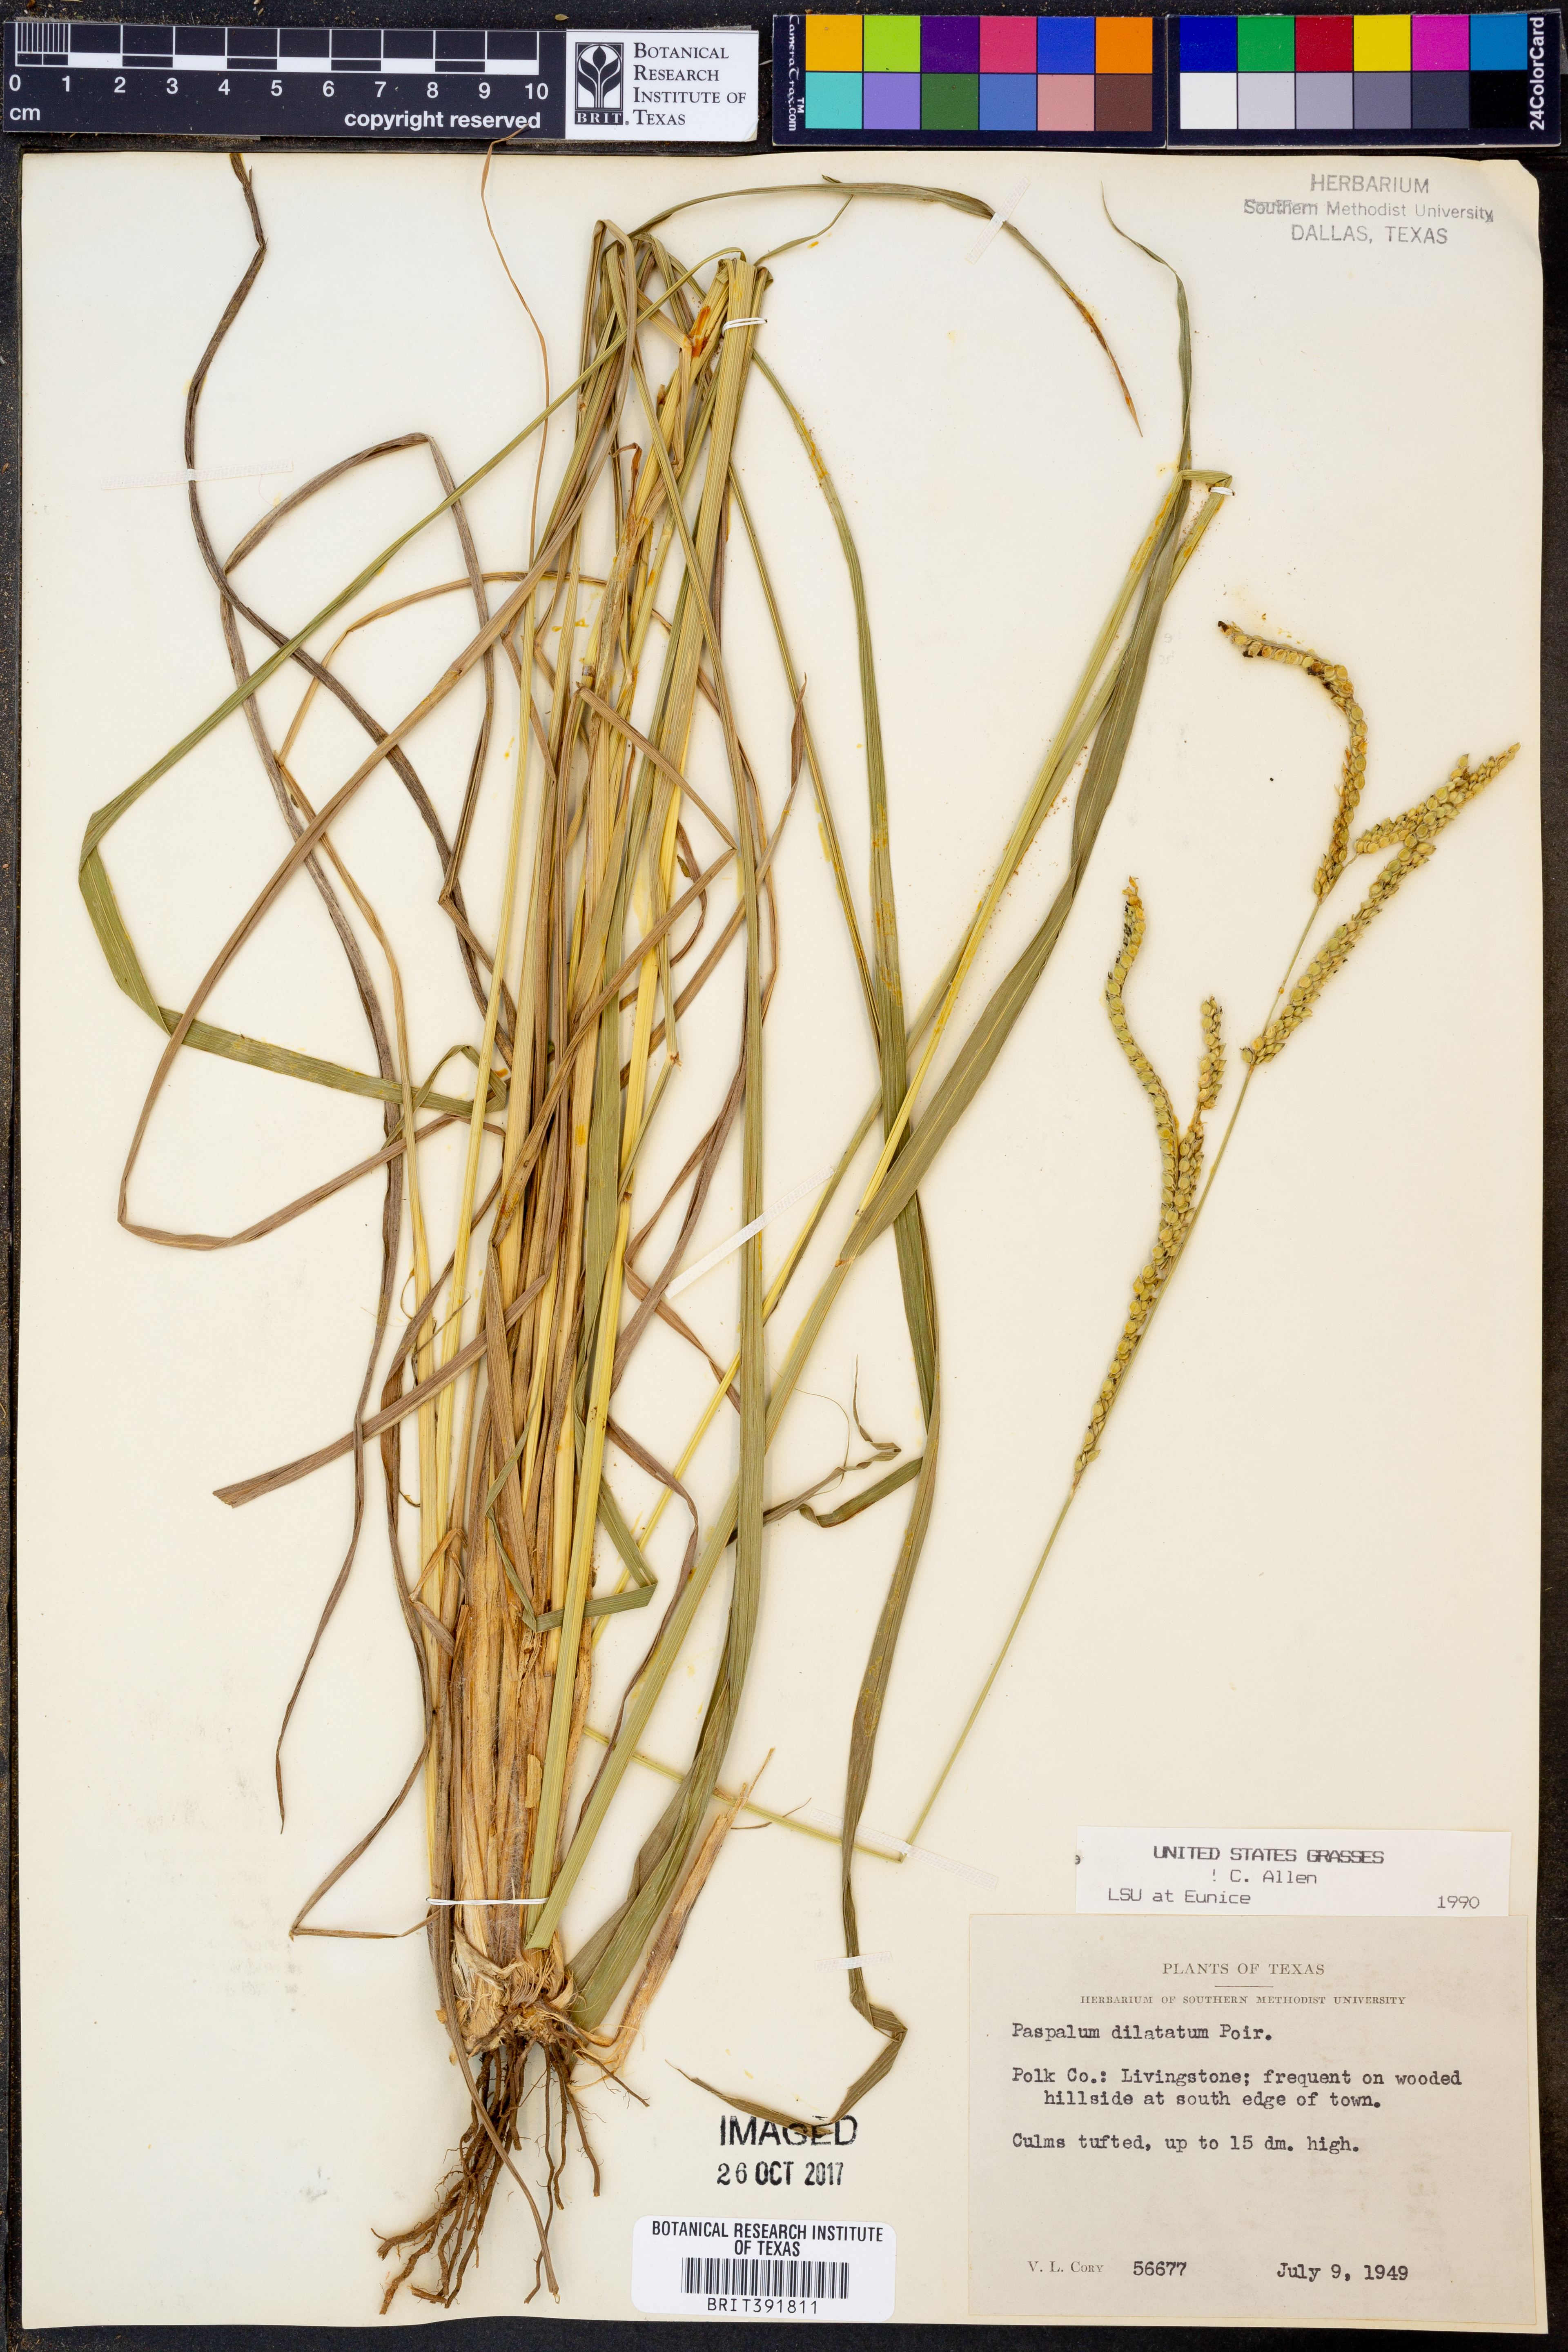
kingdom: Plantae
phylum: Tracheophyta
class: Liliopsida
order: Poales
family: Poaceae
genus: Paspalum
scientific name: Paspalum dilatatum
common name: Dallisgrass
